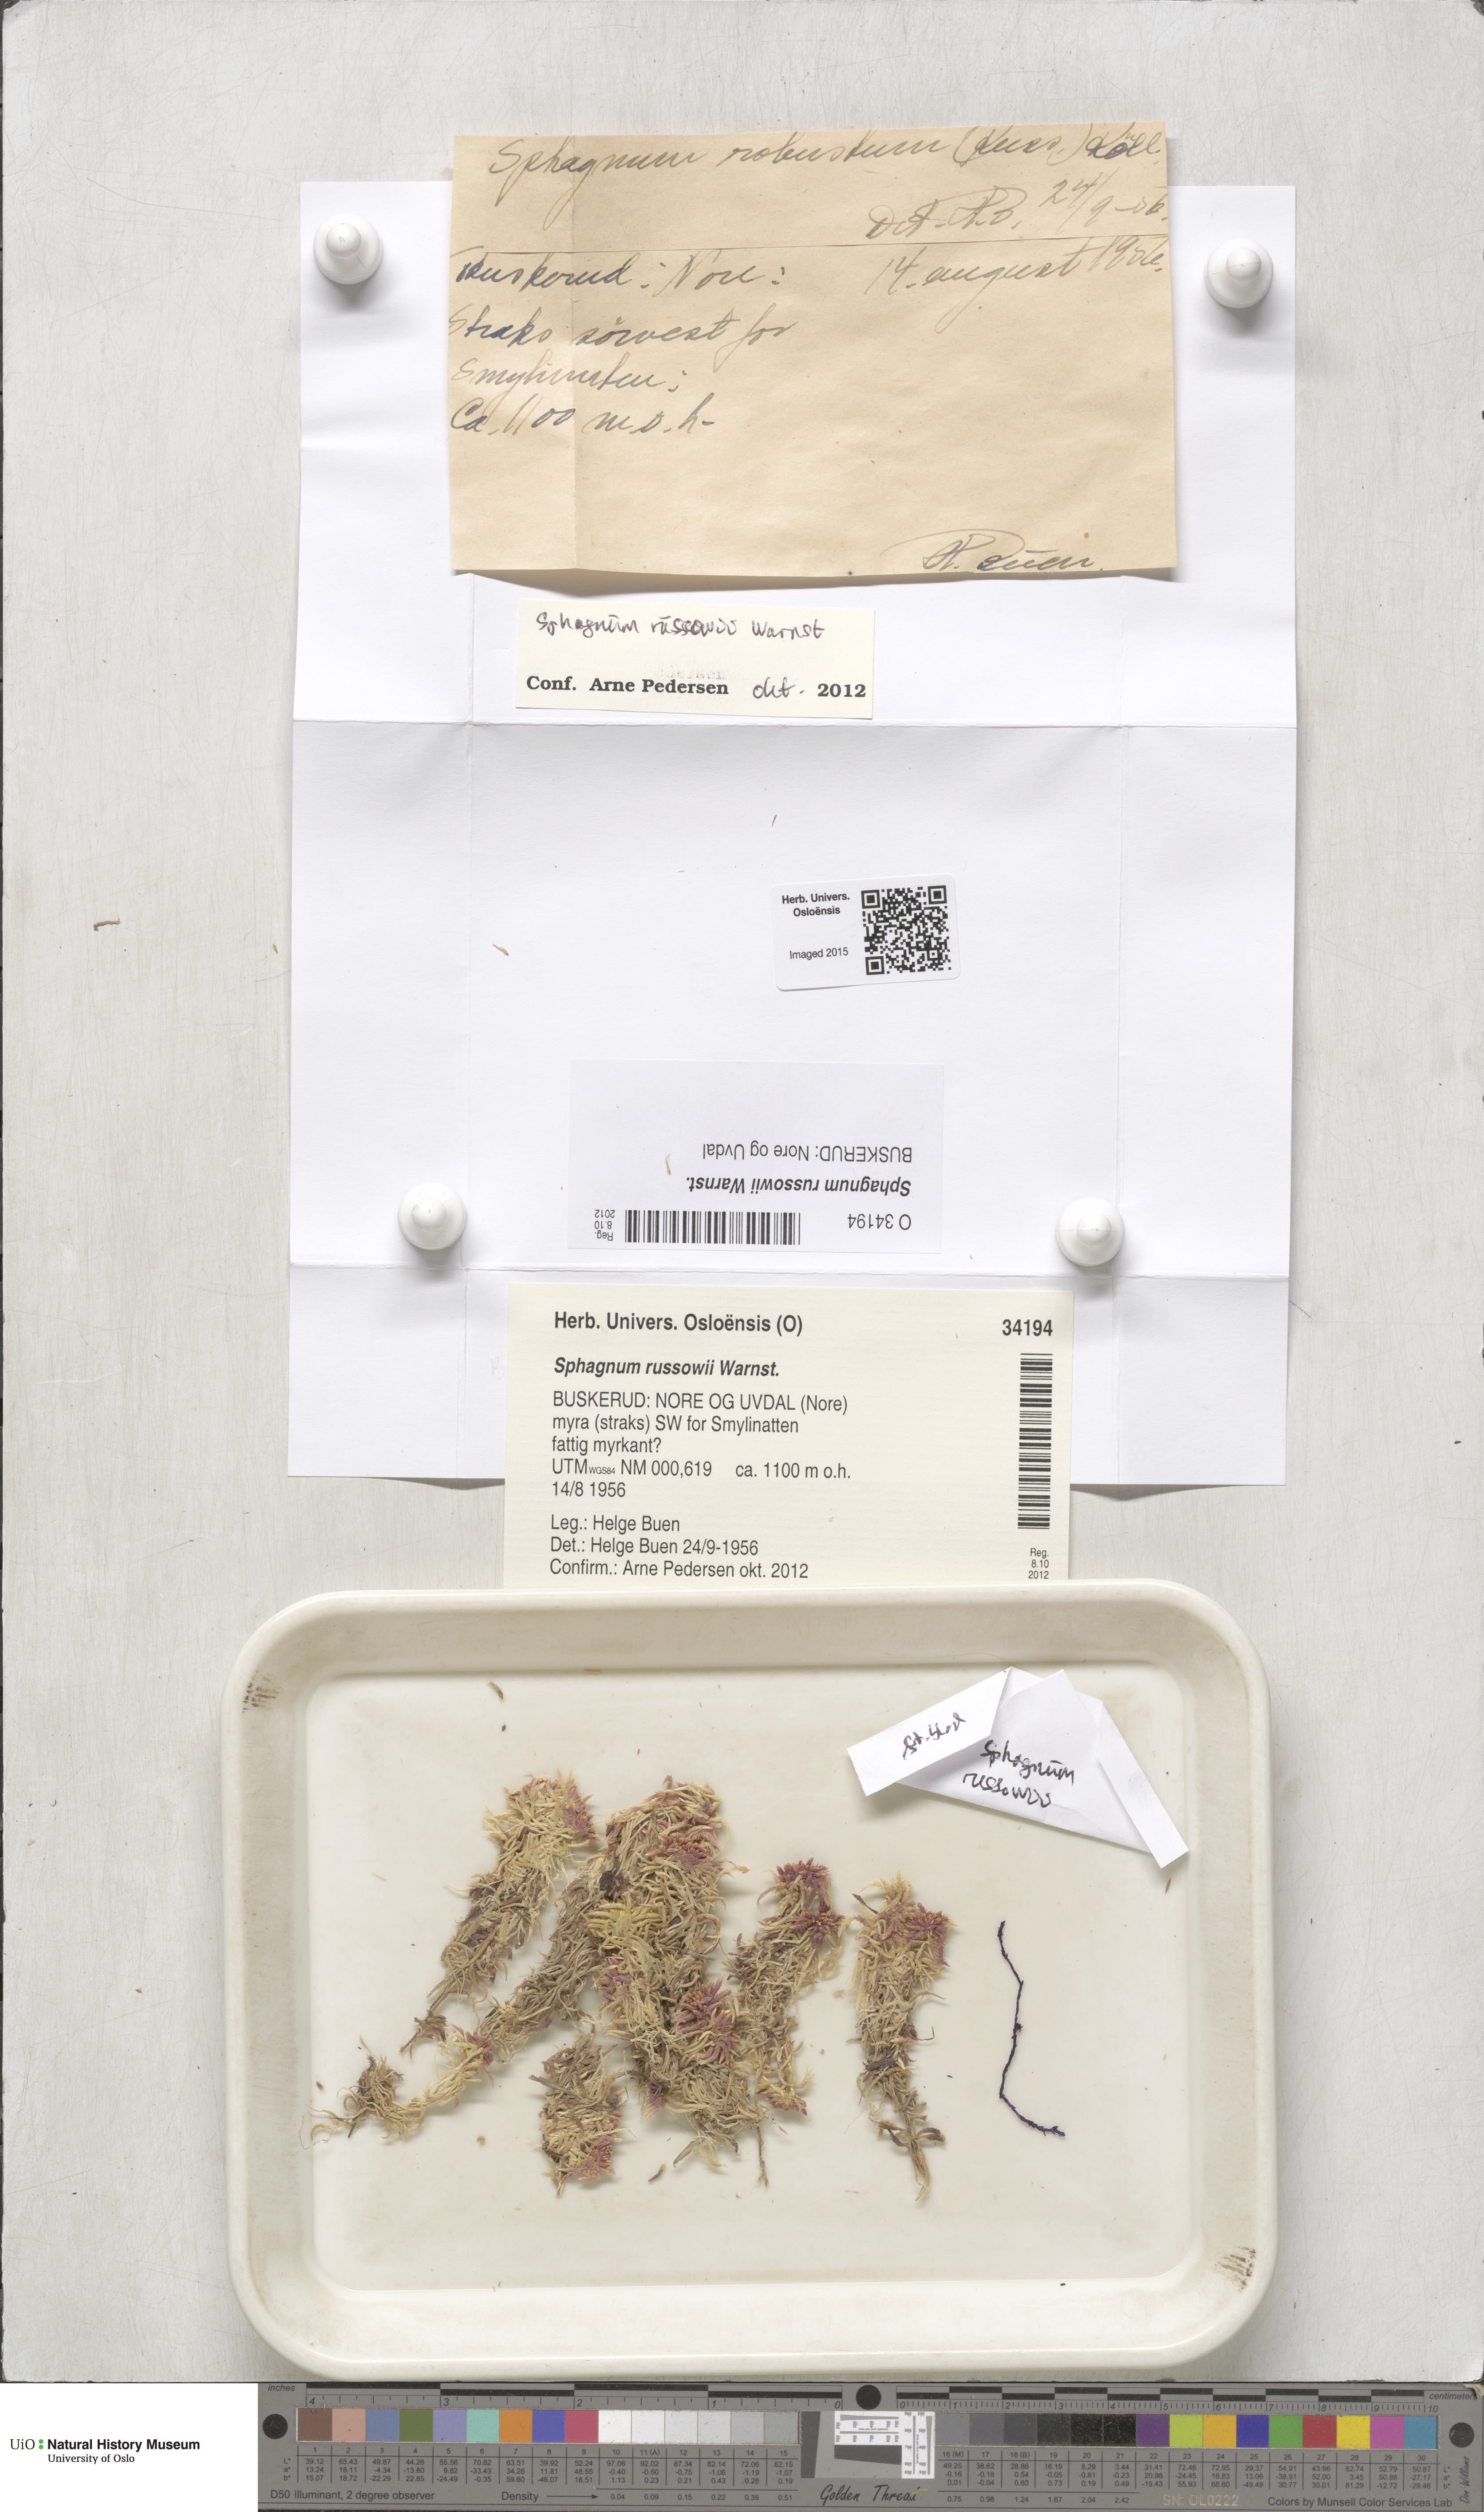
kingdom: Plantae
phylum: Bryophyta
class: Sphagnopsida
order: Sphagnales
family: Sphagnaceae
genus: Sphagnum
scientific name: Sphagnum russowii
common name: Russow's peat moss
